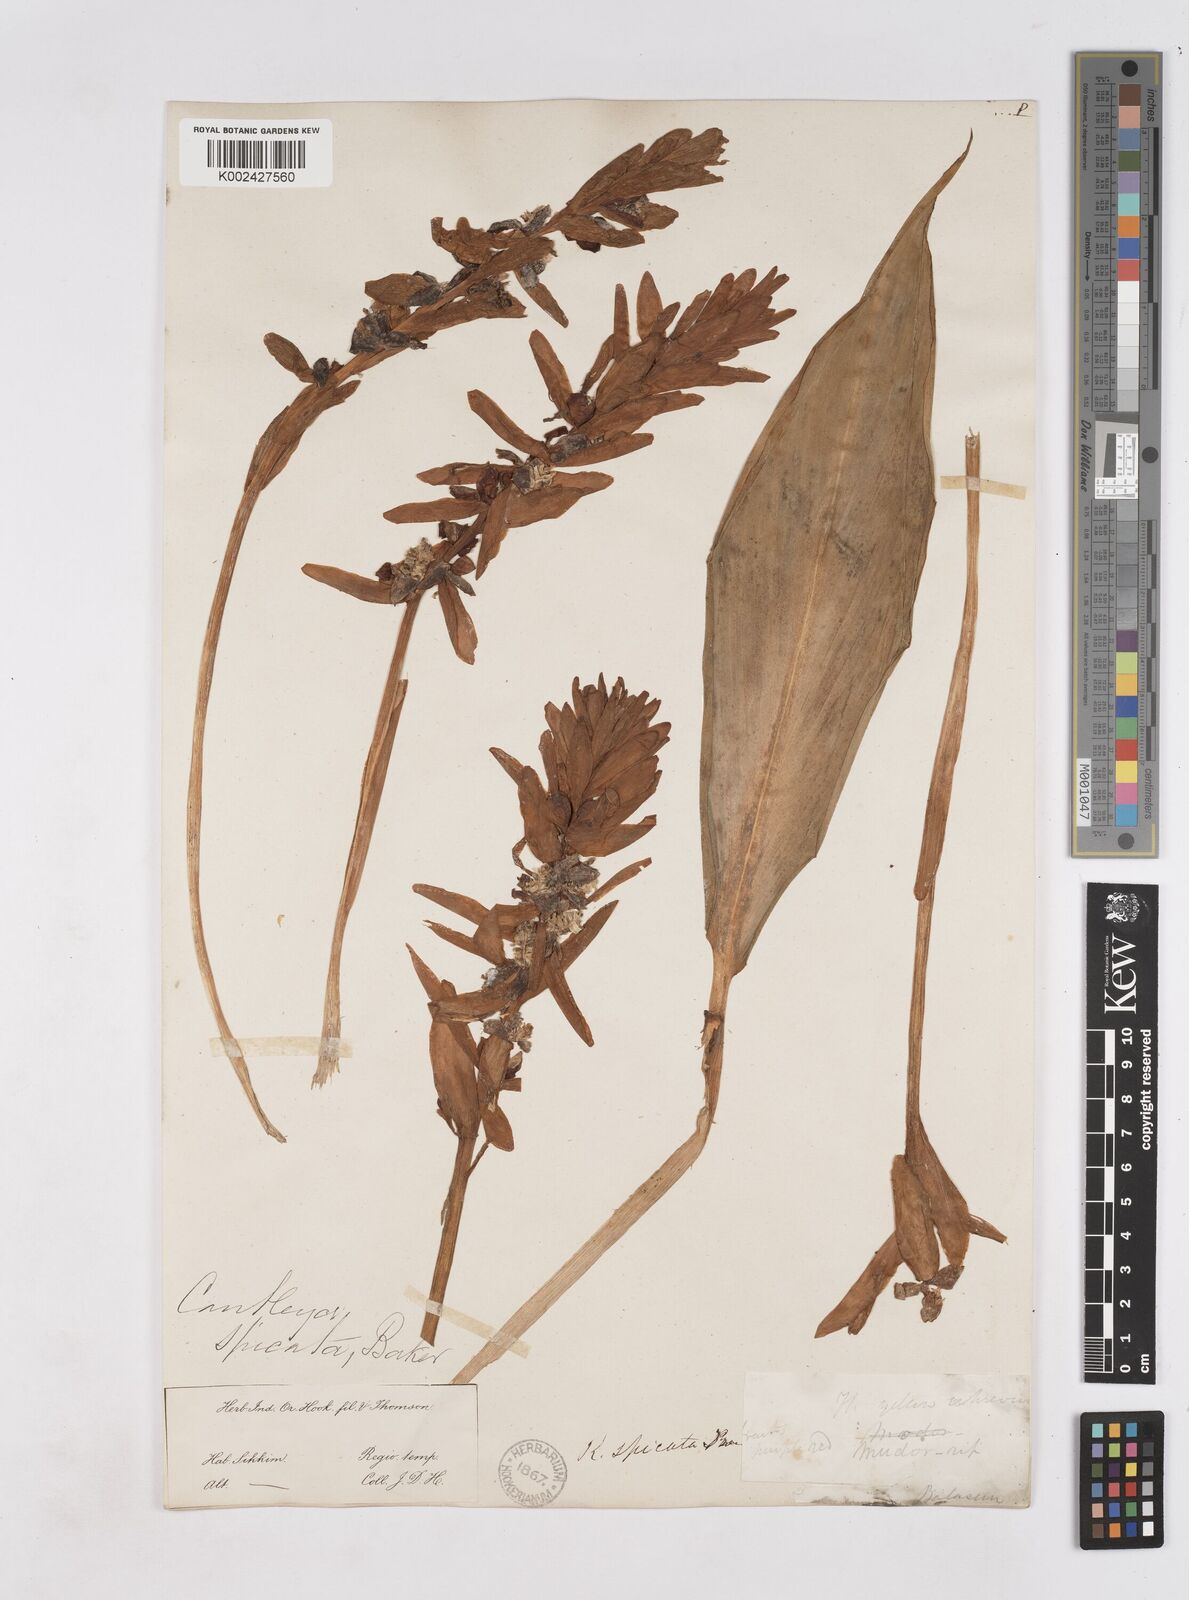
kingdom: Plantae
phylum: Tracheophyta
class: Liliopsida
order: Zingiberales
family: Zingiberaceae
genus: Cautleya
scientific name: Cautleya spicata
